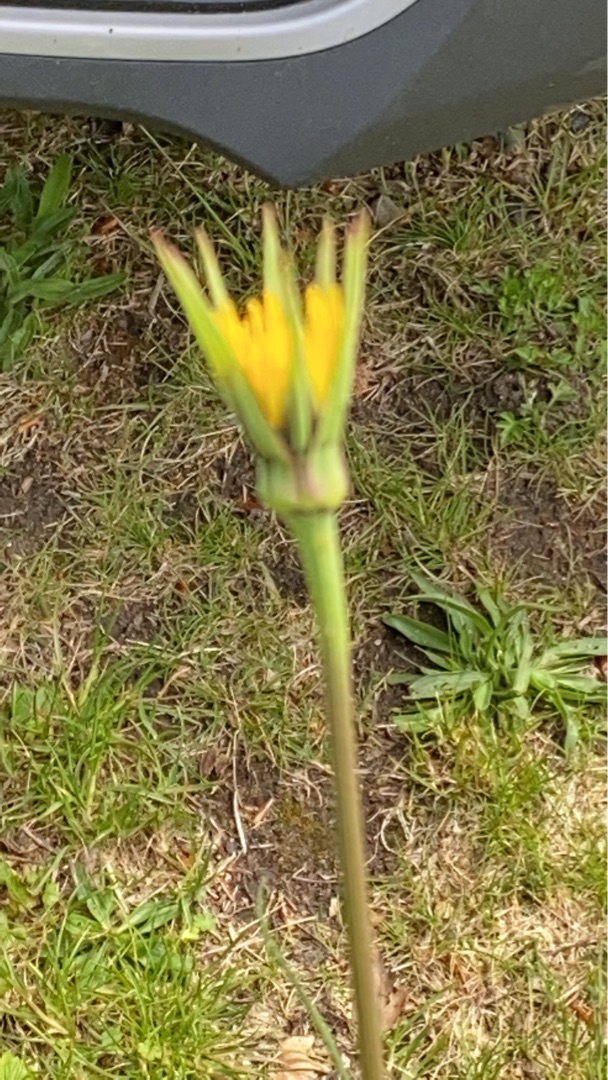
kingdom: Plantae
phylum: Tracheophyta
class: Magnoliopsida
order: Asterales
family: Asteraceae
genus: Tragopogon
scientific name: Tragopogon minor
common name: Småkronet gedeskæg
